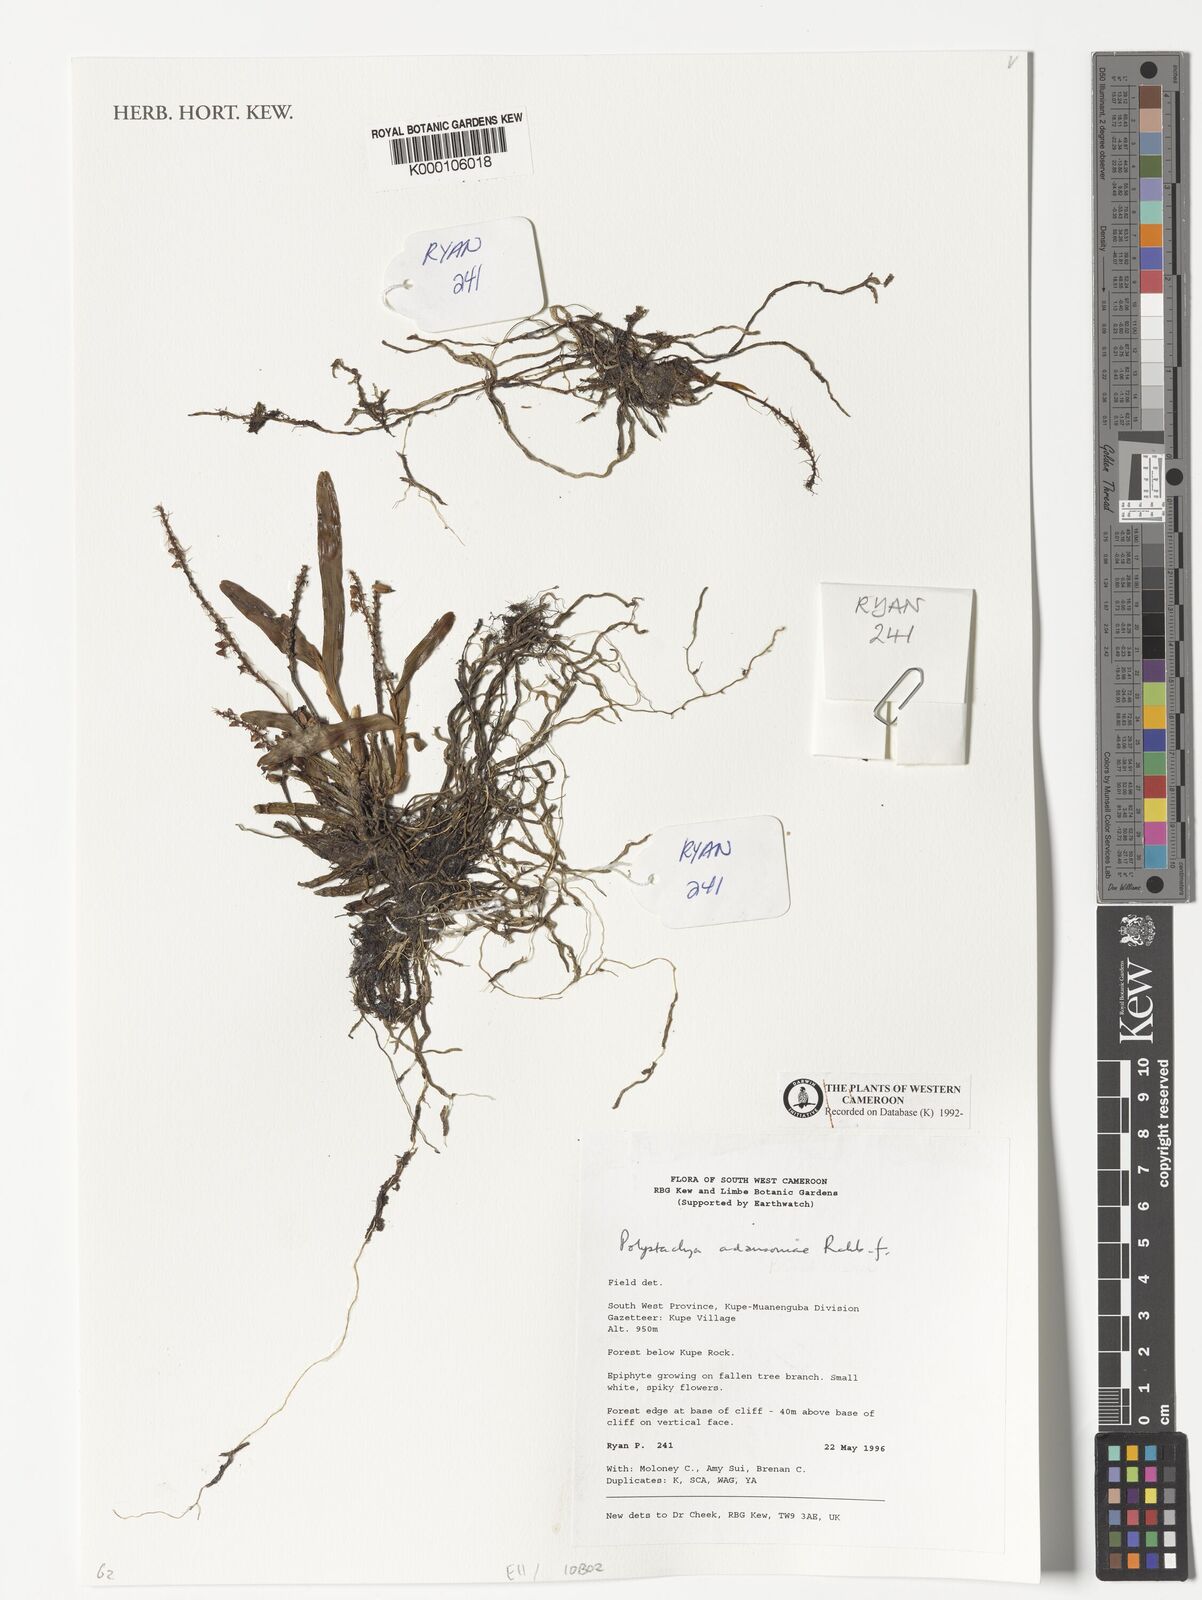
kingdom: Plantae
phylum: Tracheophyta
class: Liliopsida
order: Asparagales
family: Orchidaceae
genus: Polystachya
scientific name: Polystachya adansoniae
